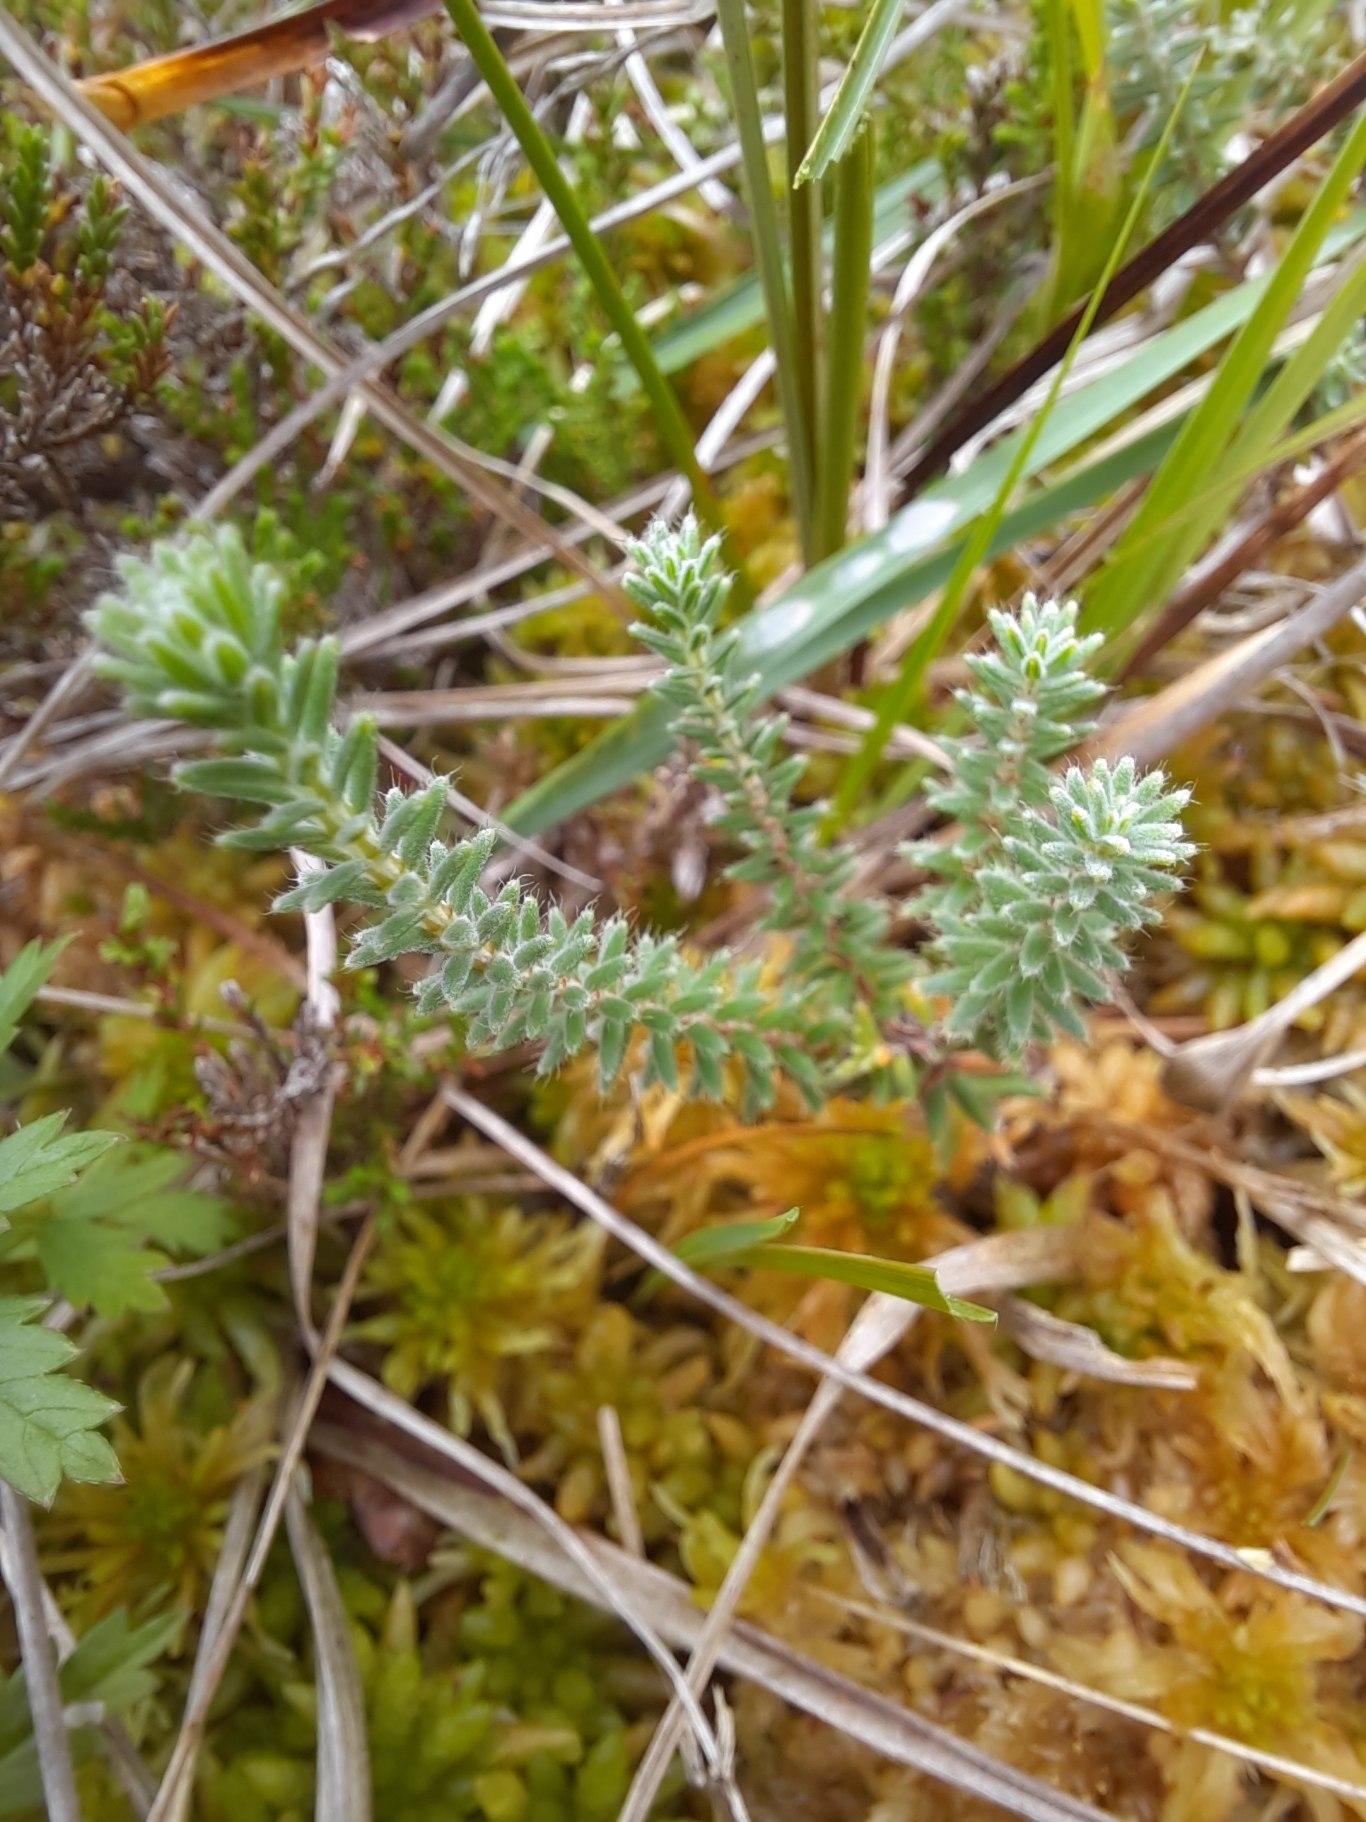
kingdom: Plantae
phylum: Tracheophyta
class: Magnoliopsida
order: Ericales
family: Ericaceae
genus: Erica
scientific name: Erica tetralix
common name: Klokkelyng
